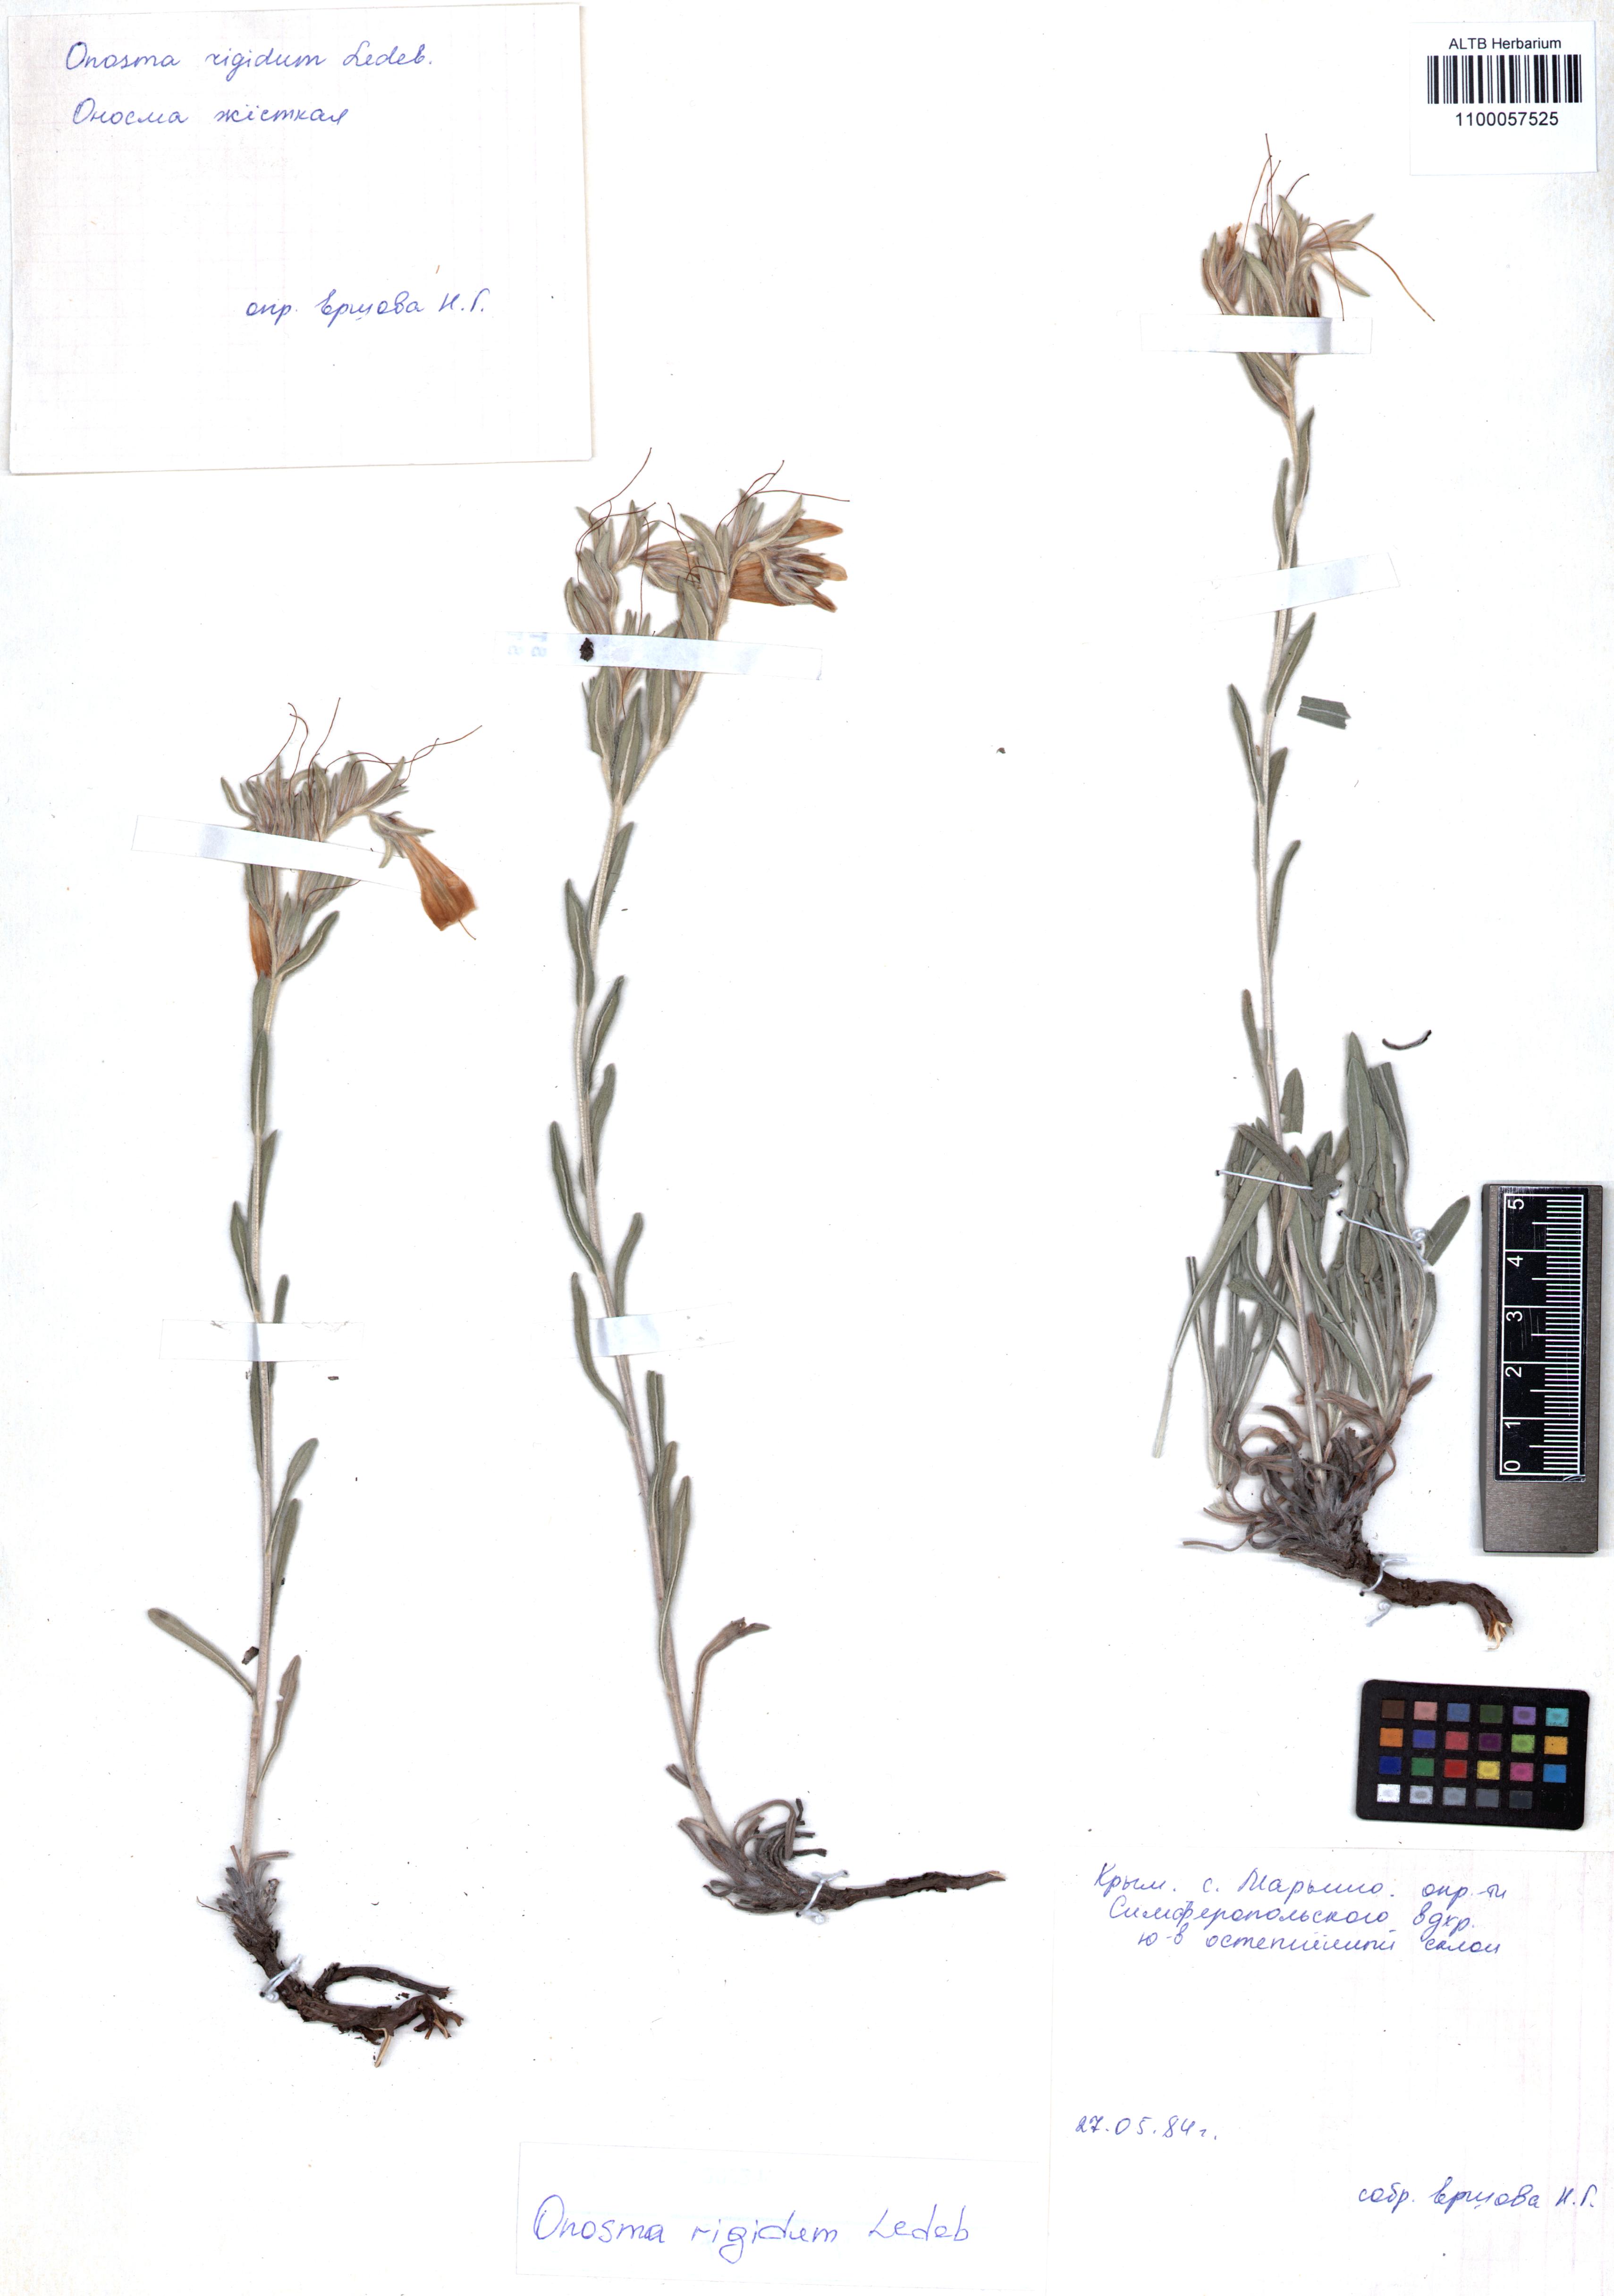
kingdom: Plantae
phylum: Tracheophyta
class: Magnoliopsida
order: Boraginales
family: Boraginaceae
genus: Onosma
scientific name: Onosma rigida
